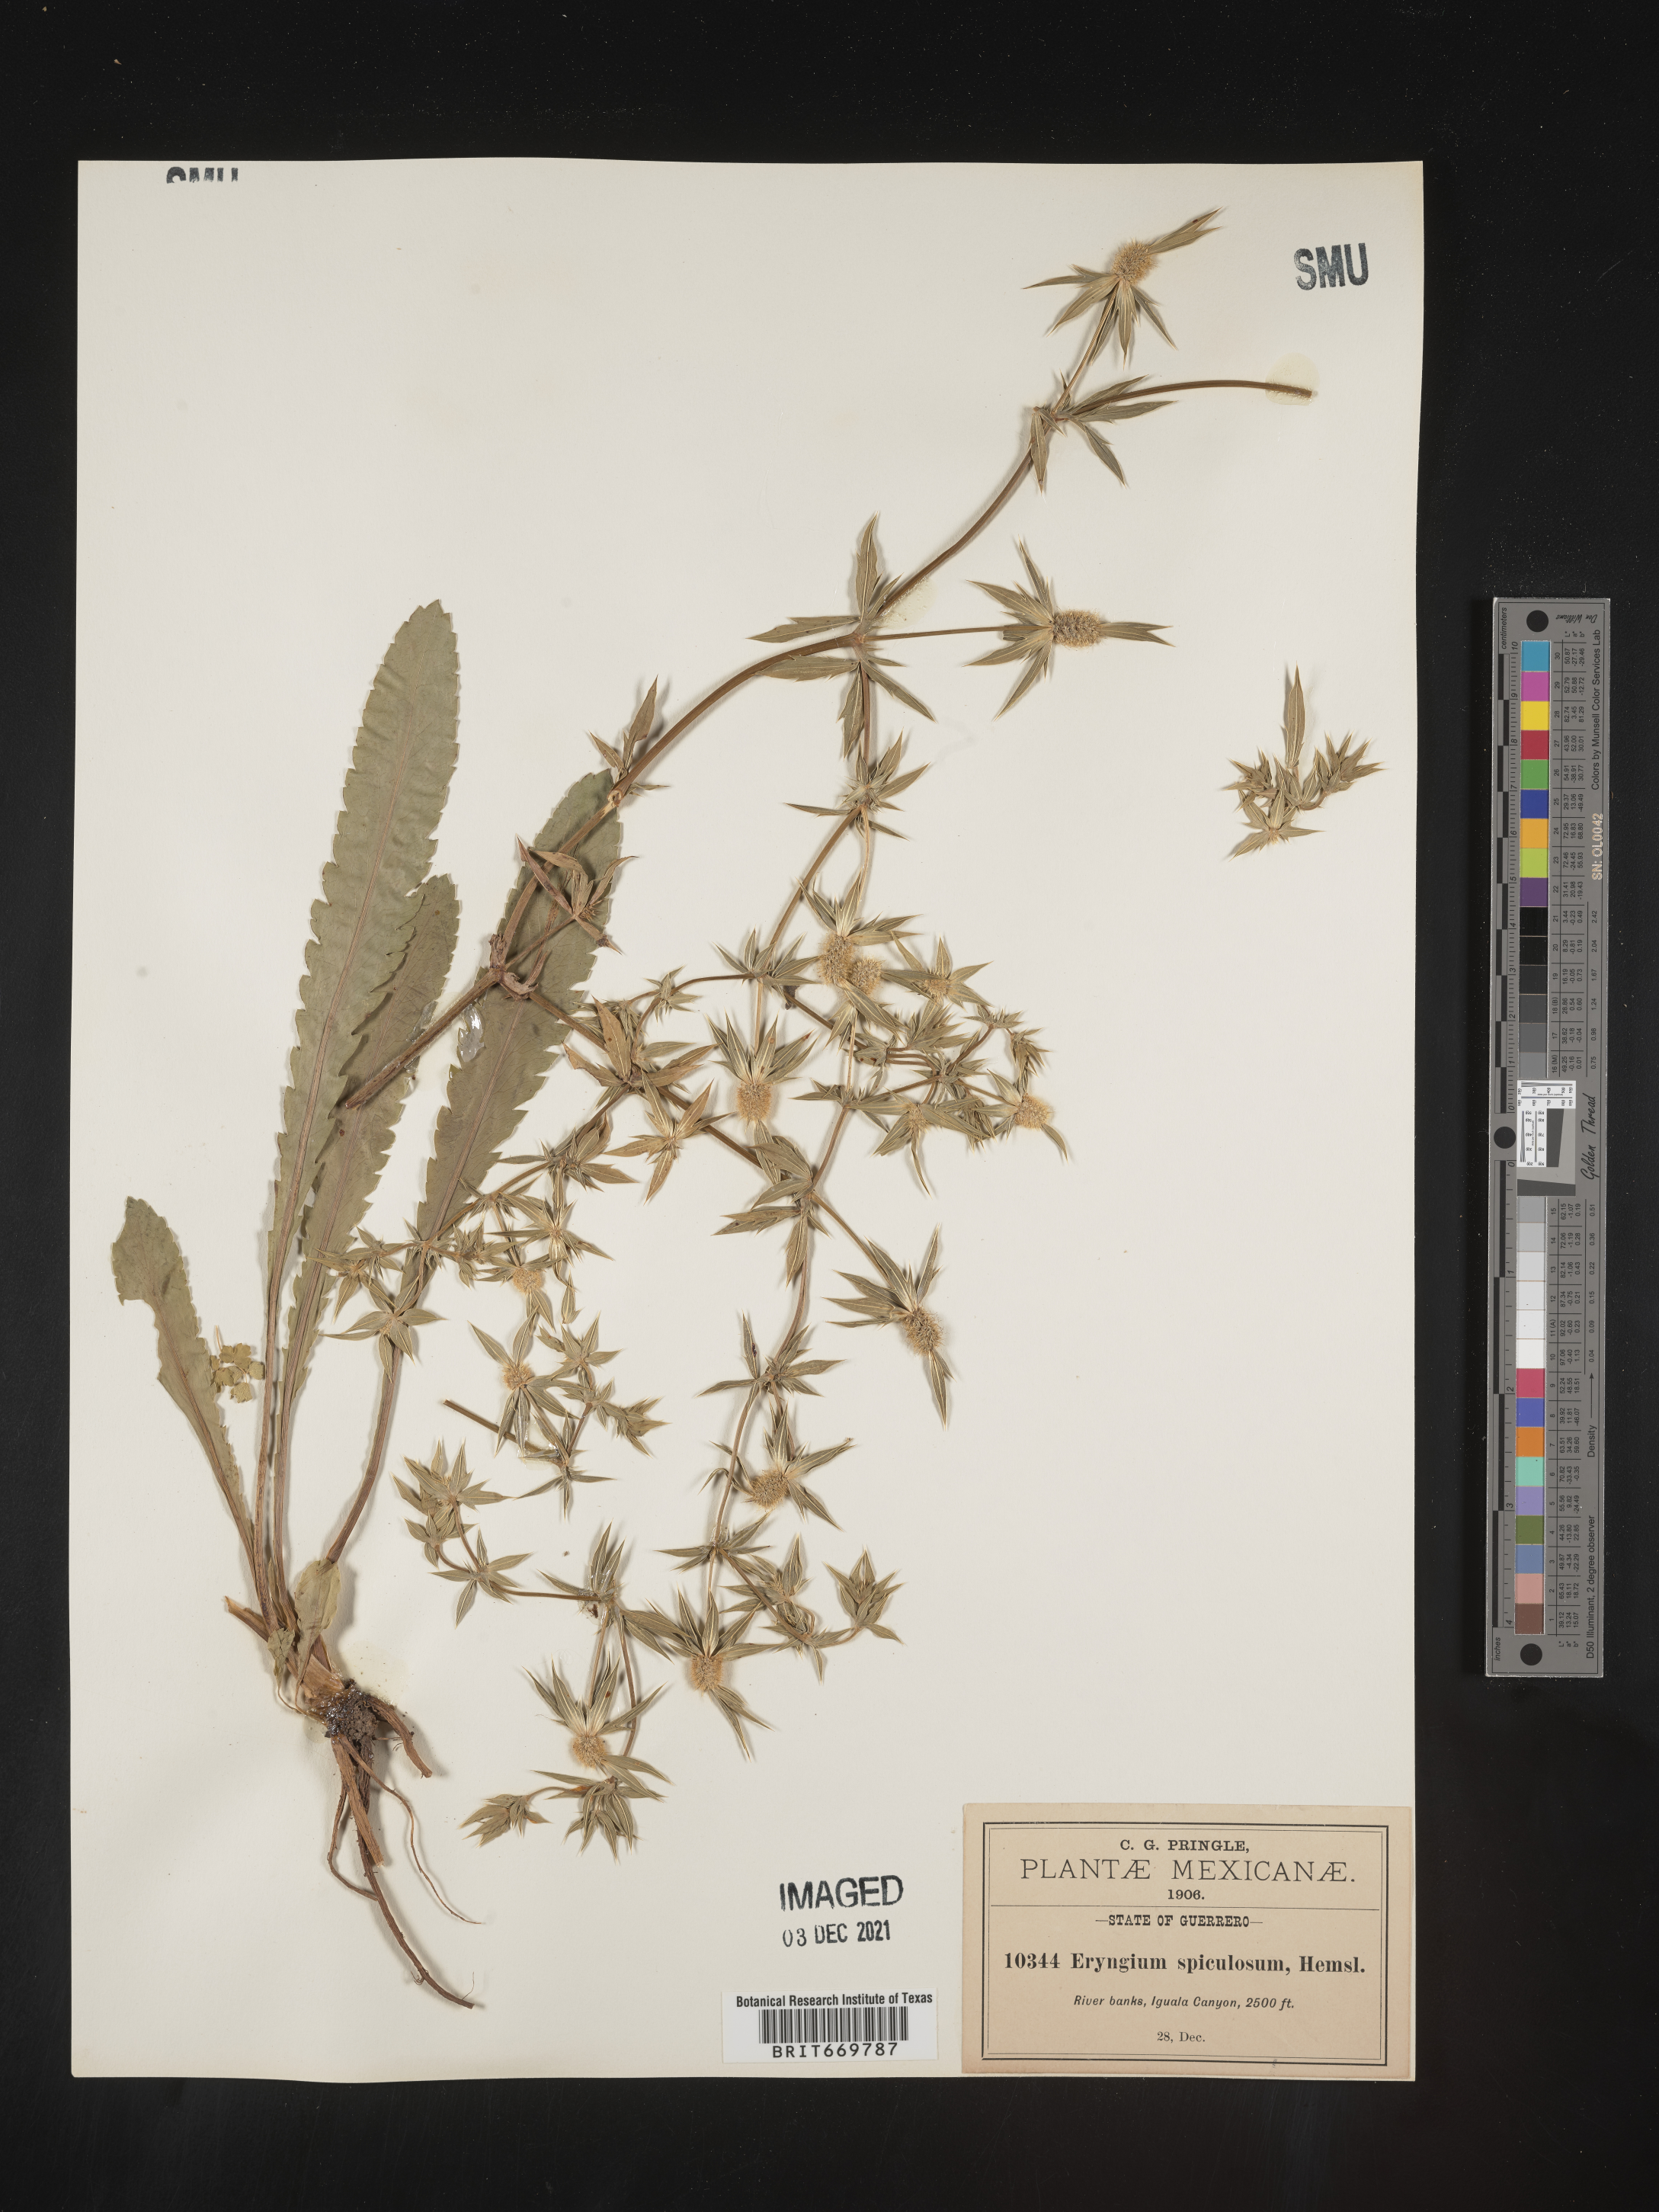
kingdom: Plantae
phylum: Tracheophyta
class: Magnoliopsida
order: Apiales
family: Apiaceae
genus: Eryngium
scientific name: Eryngium
